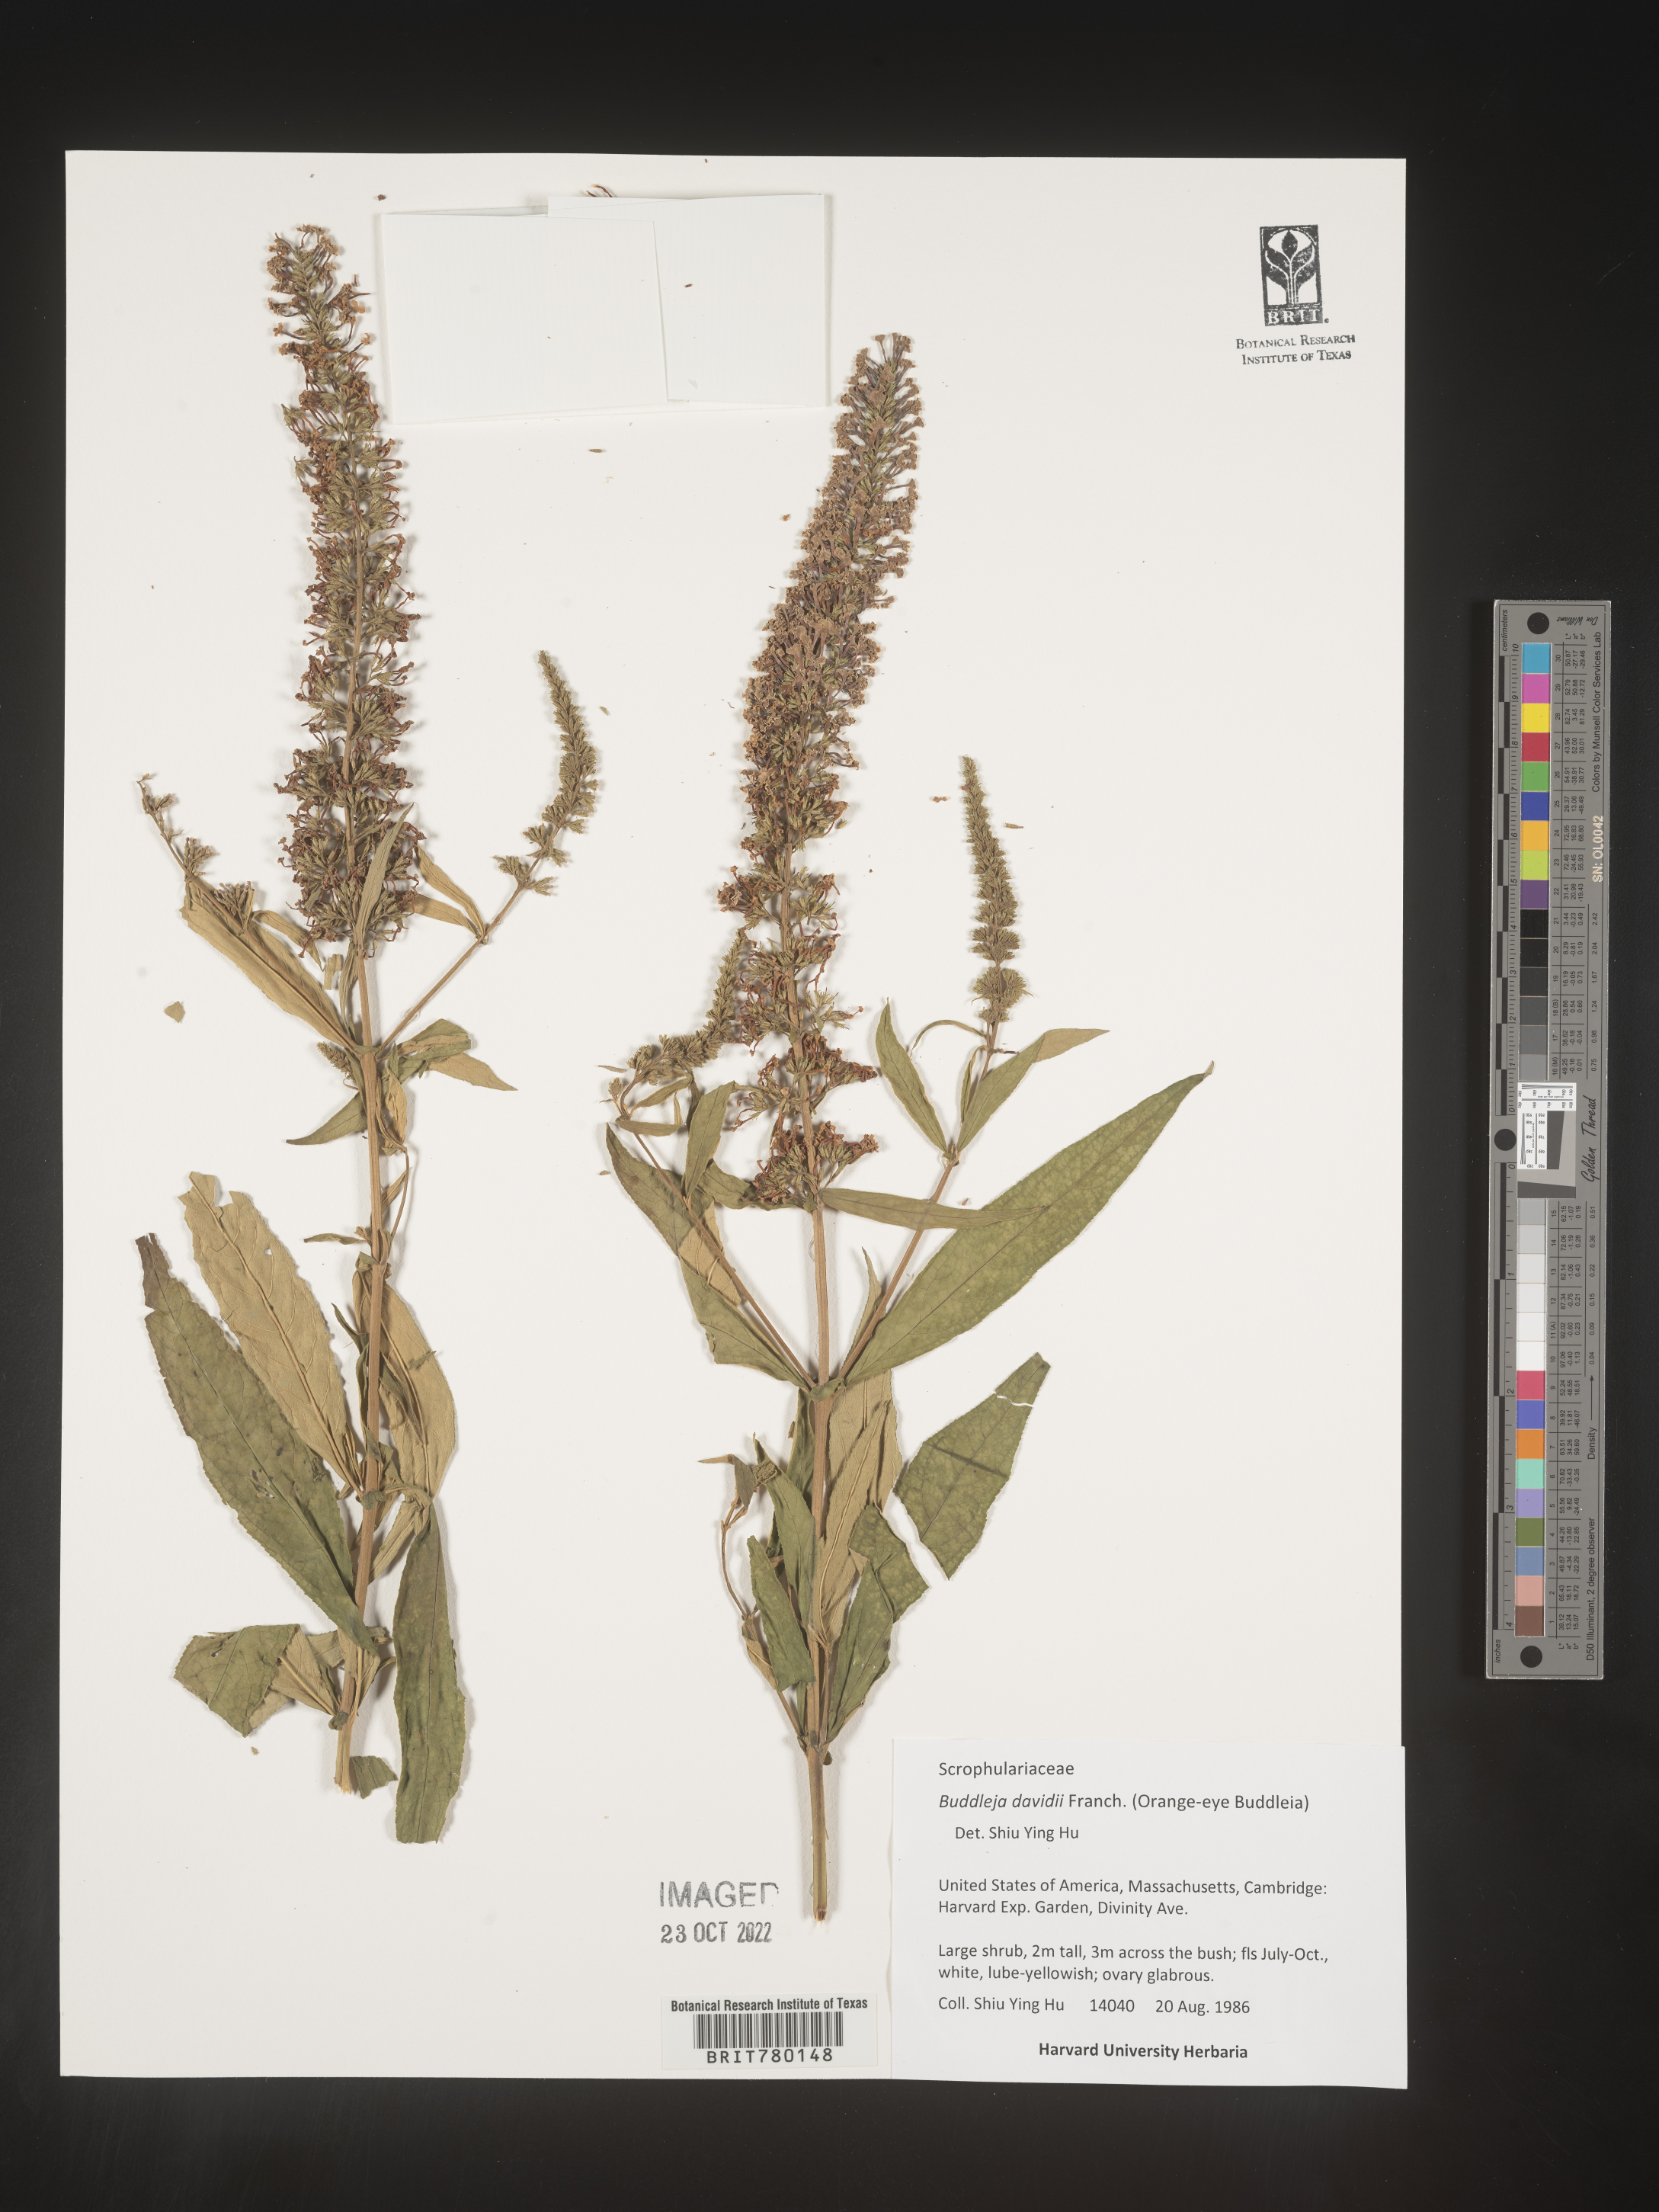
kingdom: Plantae
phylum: Tracheophyta
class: Magnoliopsida
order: Lamiales
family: Scrophulariaceae
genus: Buddleja
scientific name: Buddleja
